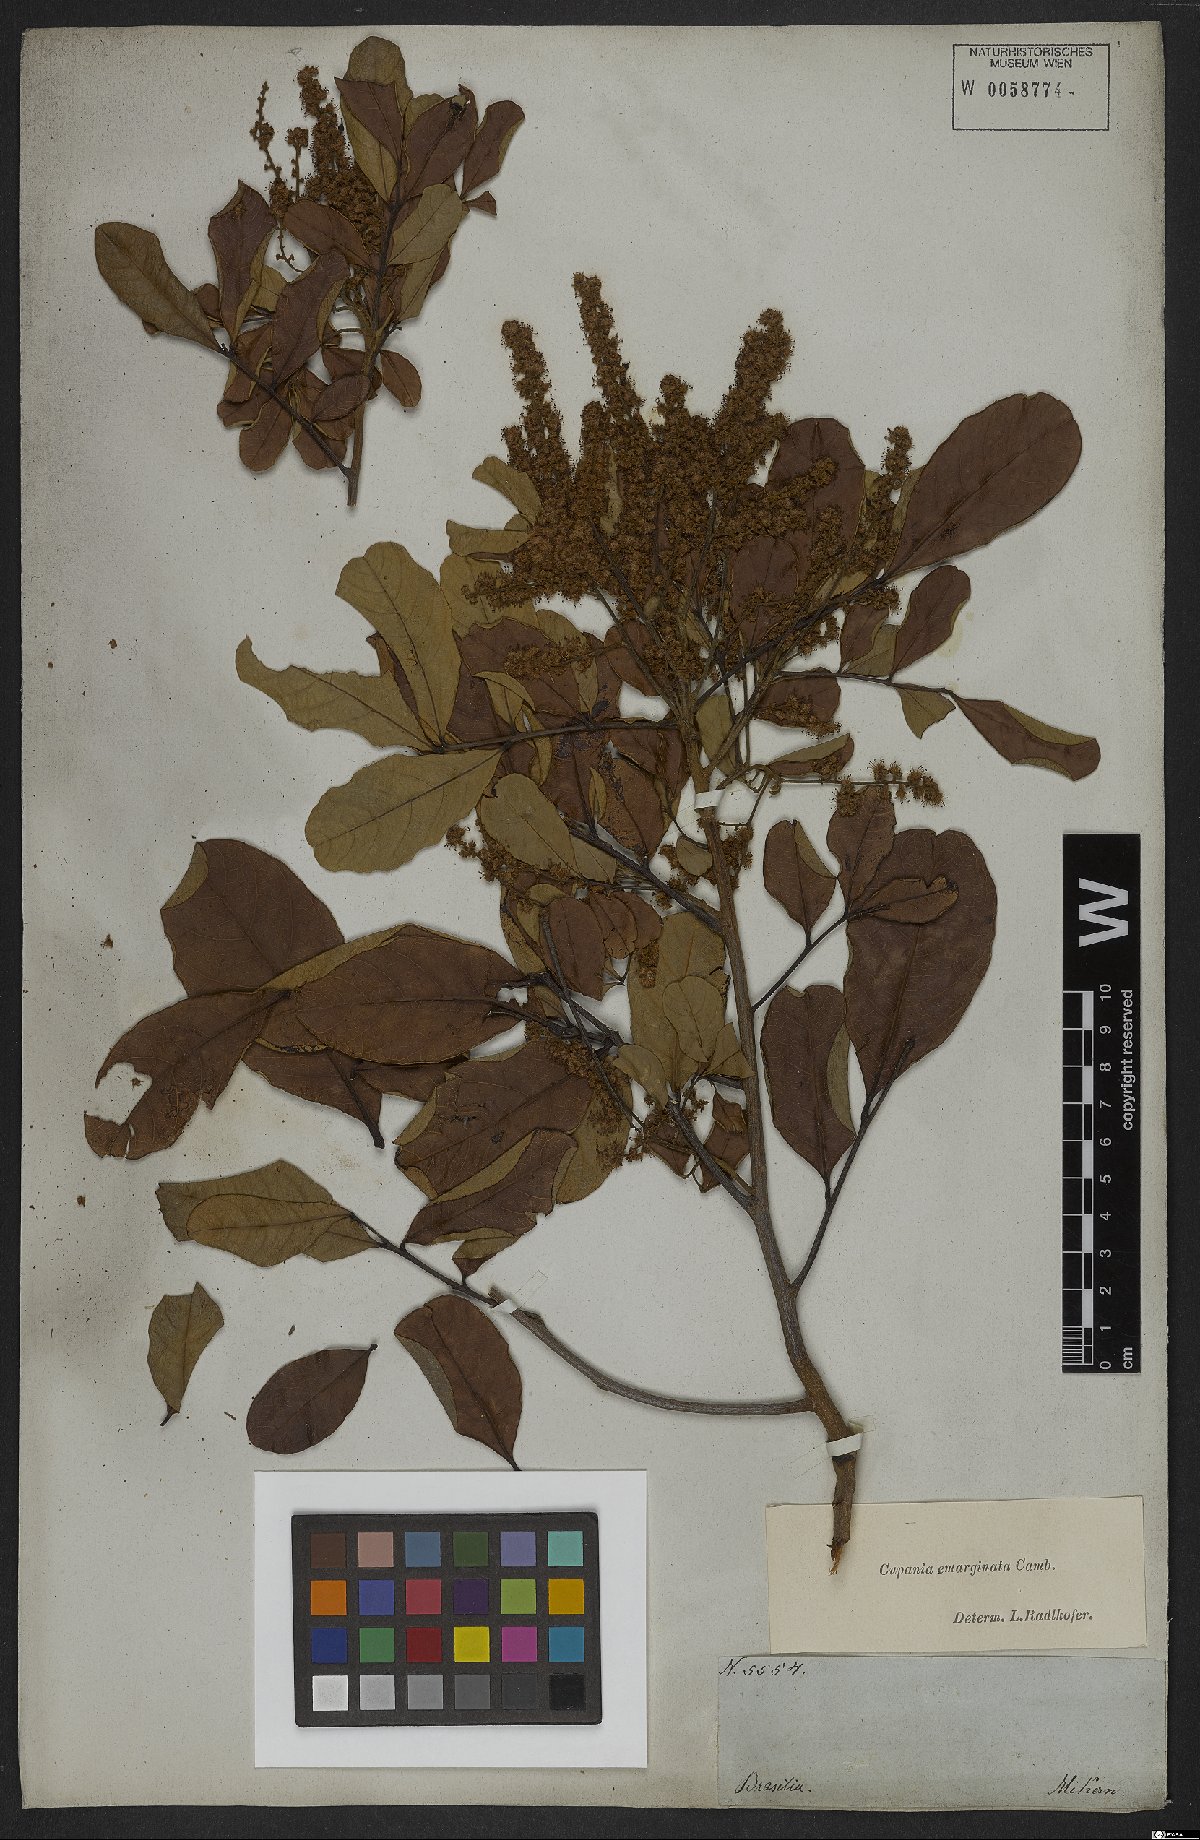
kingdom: Plantae
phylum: Tracheophyta
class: Magnoliopsida
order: Sapindales
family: Sapindaceae
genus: Cupania
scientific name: Cupania emarginata
